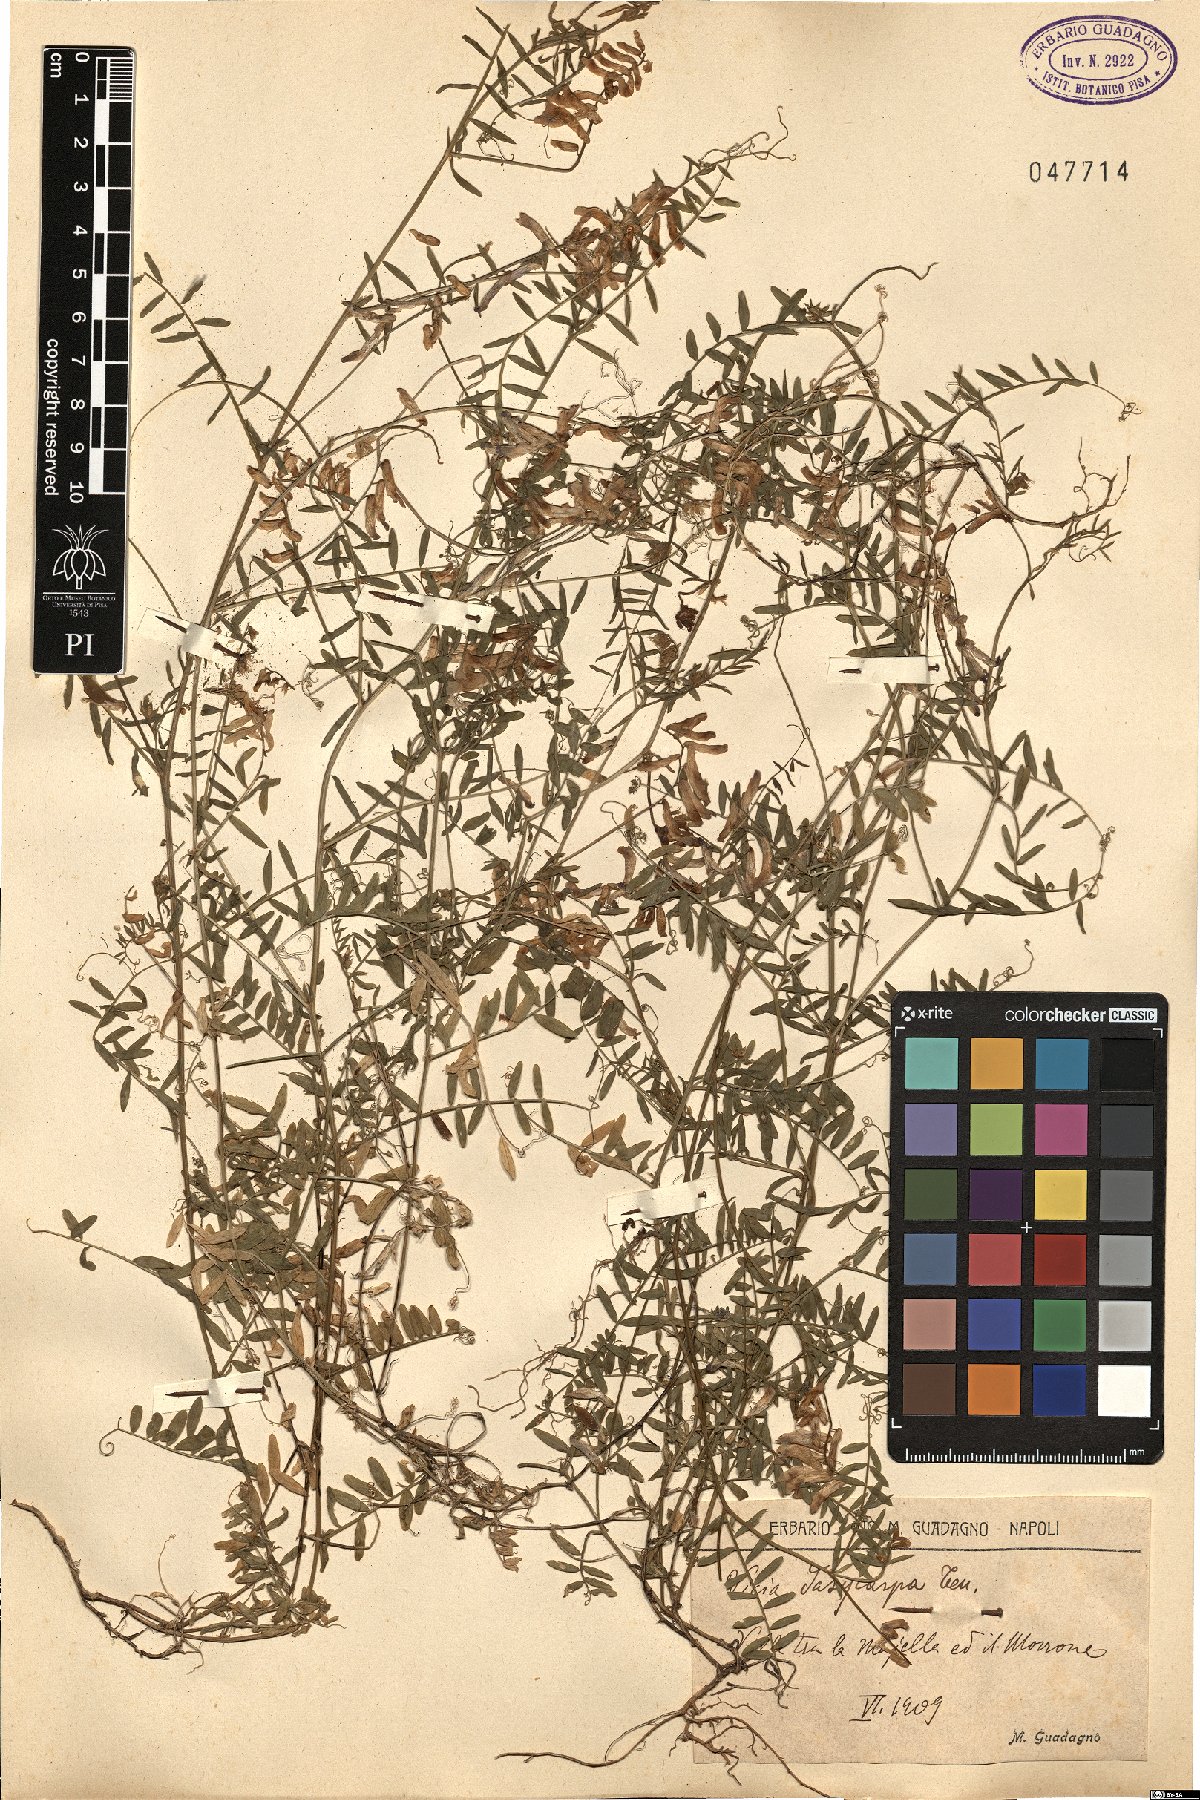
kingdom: Plantae
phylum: Tracheophyta
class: Magnoliopsida
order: Fabales
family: Fabaceae
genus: Vicia
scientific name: Vicia villosa
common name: Fodder vetch
